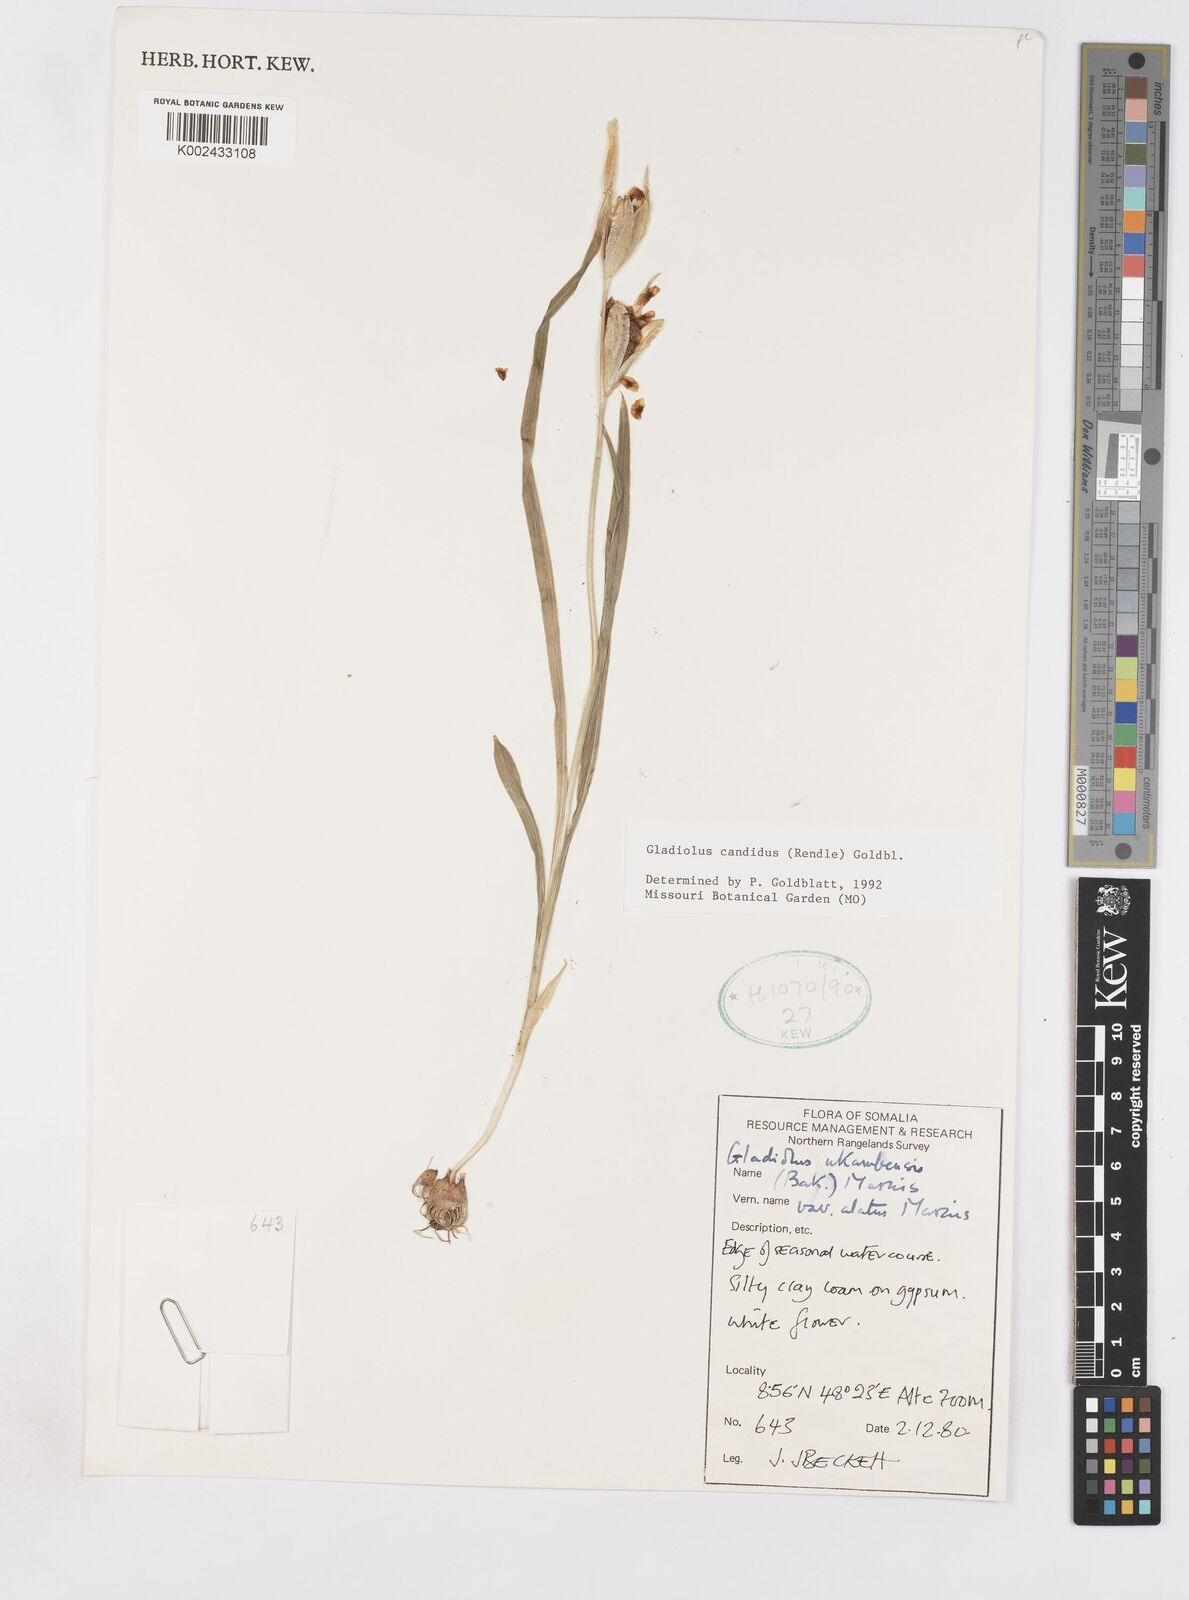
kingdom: Plantae
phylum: Tracheophyta
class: Liliopsida
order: Asparagales
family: Iridaceae
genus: Gladiolus
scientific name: Gladiolus candidus
